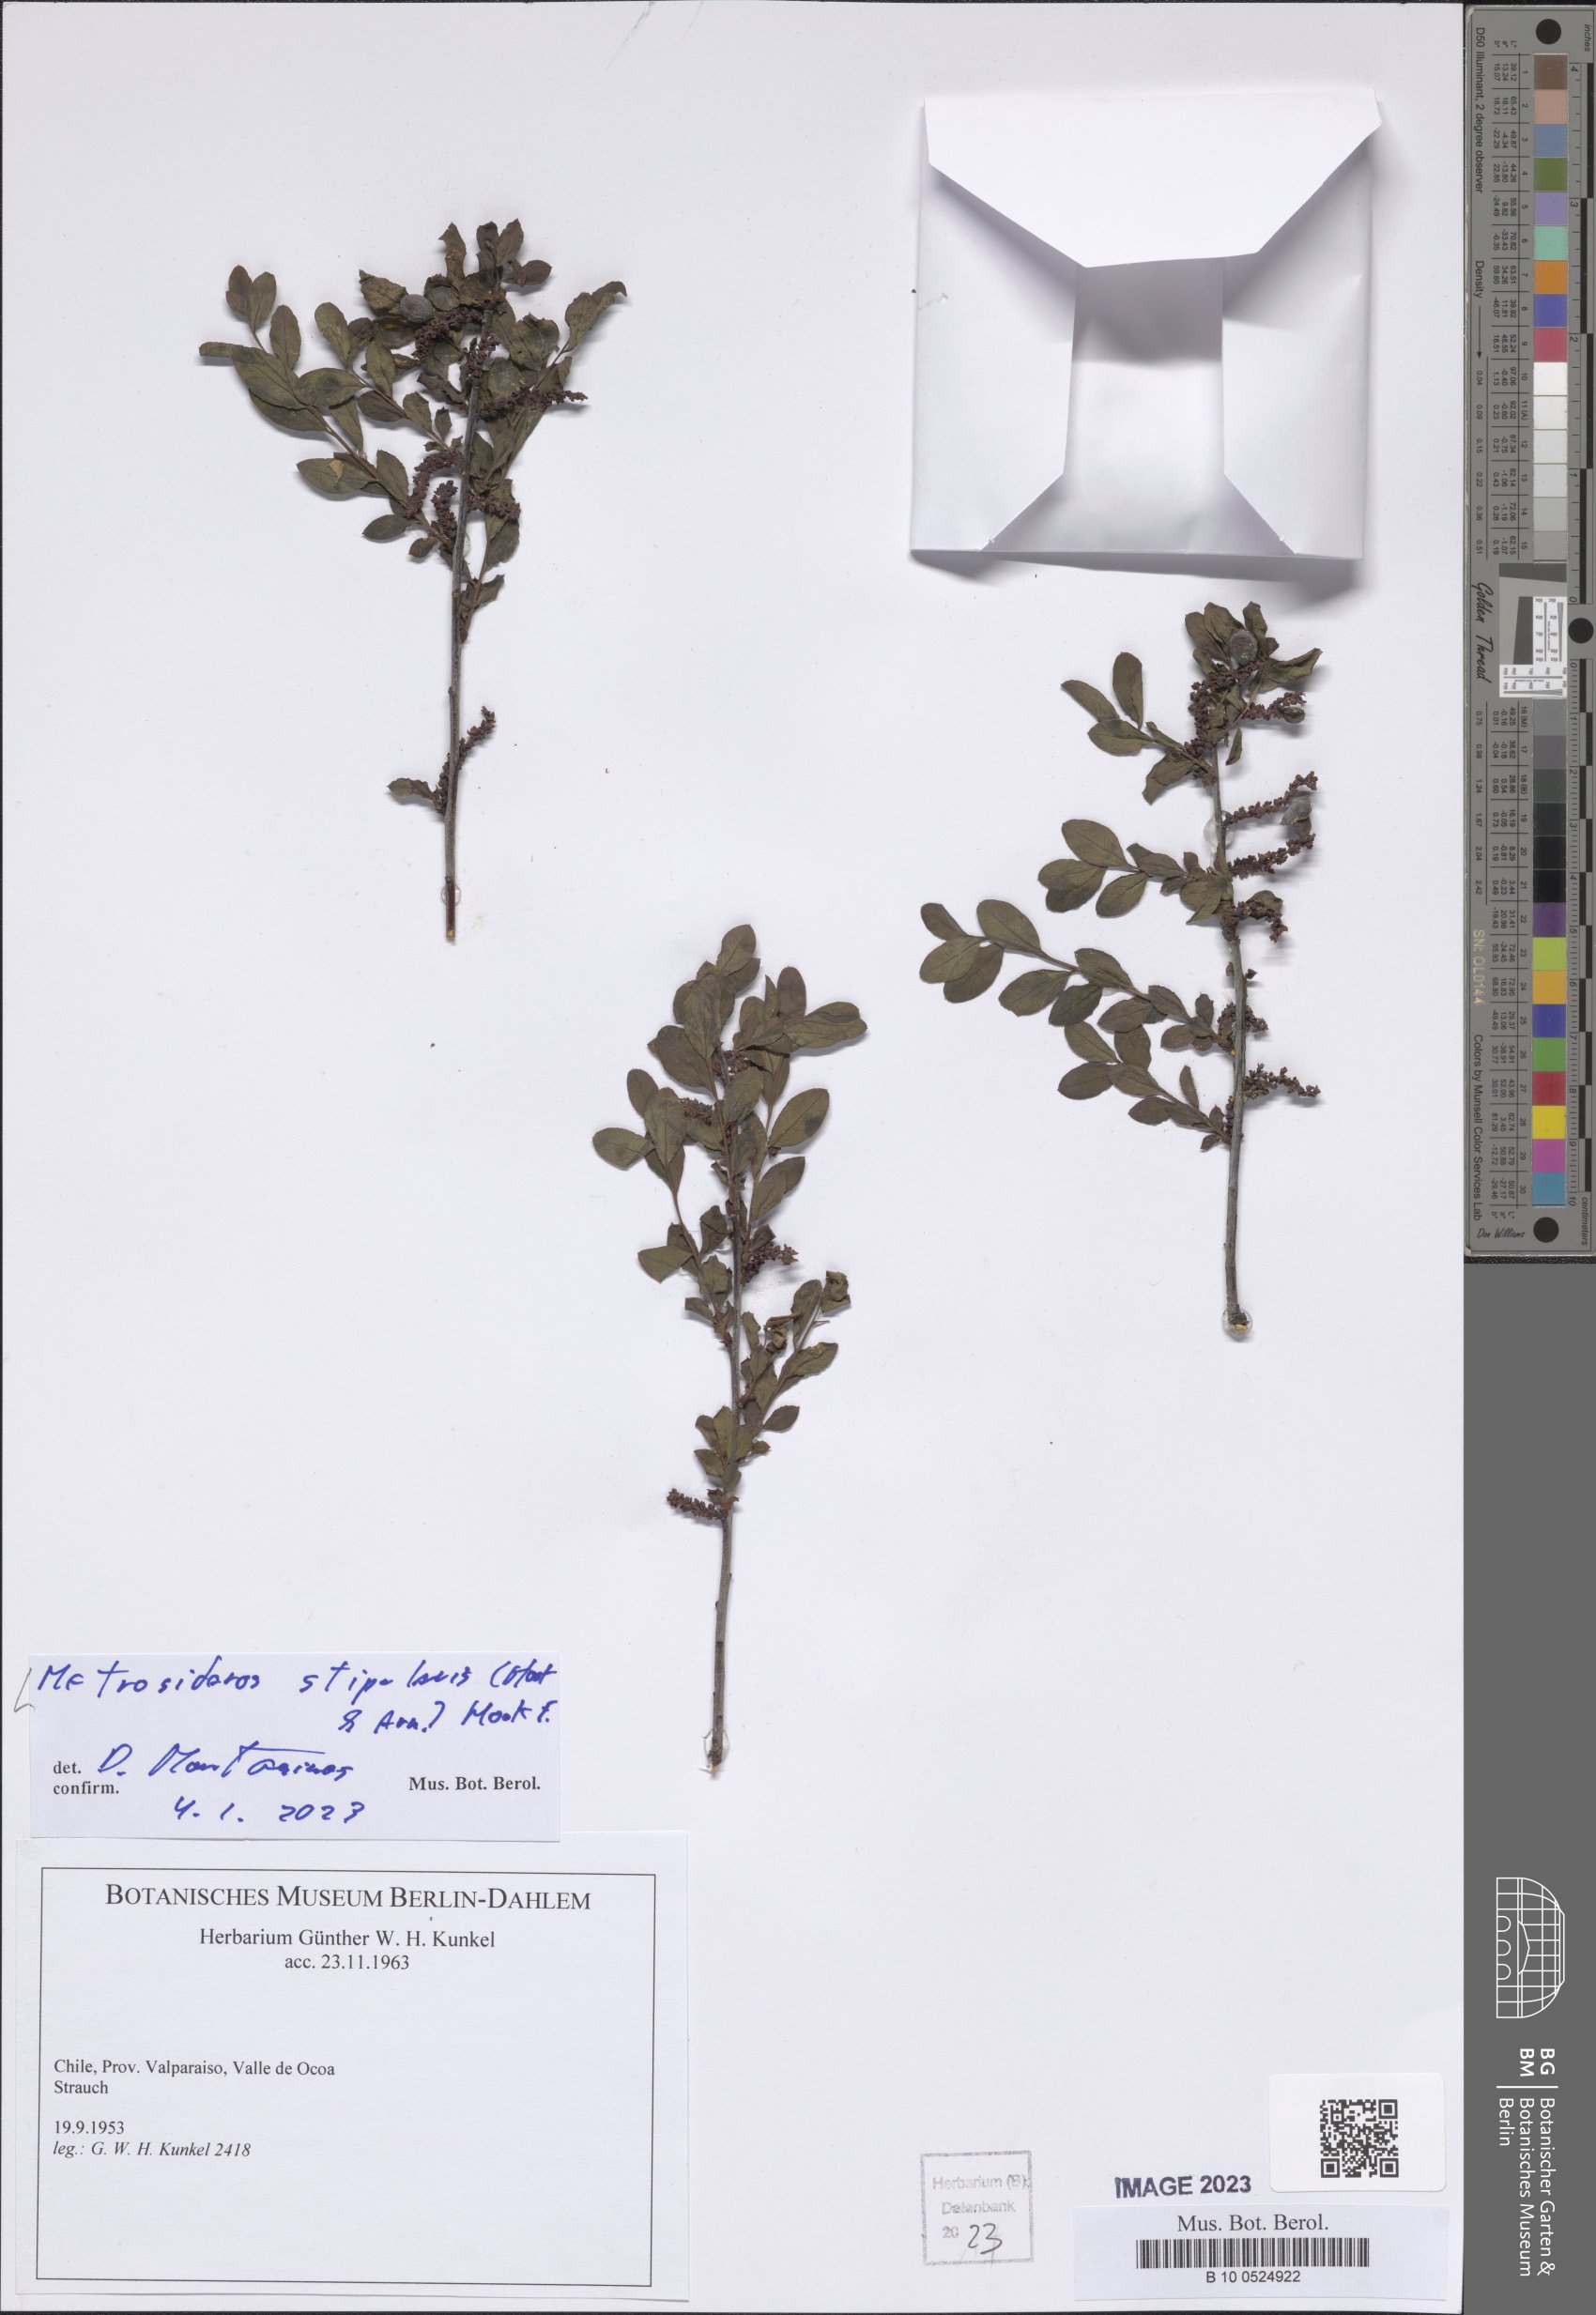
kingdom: Plantae
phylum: Tracheophyta
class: Magnoliopsida
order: Myrtales
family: Myrtaceae
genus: Tepualia
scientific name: Tepualia stipularis
